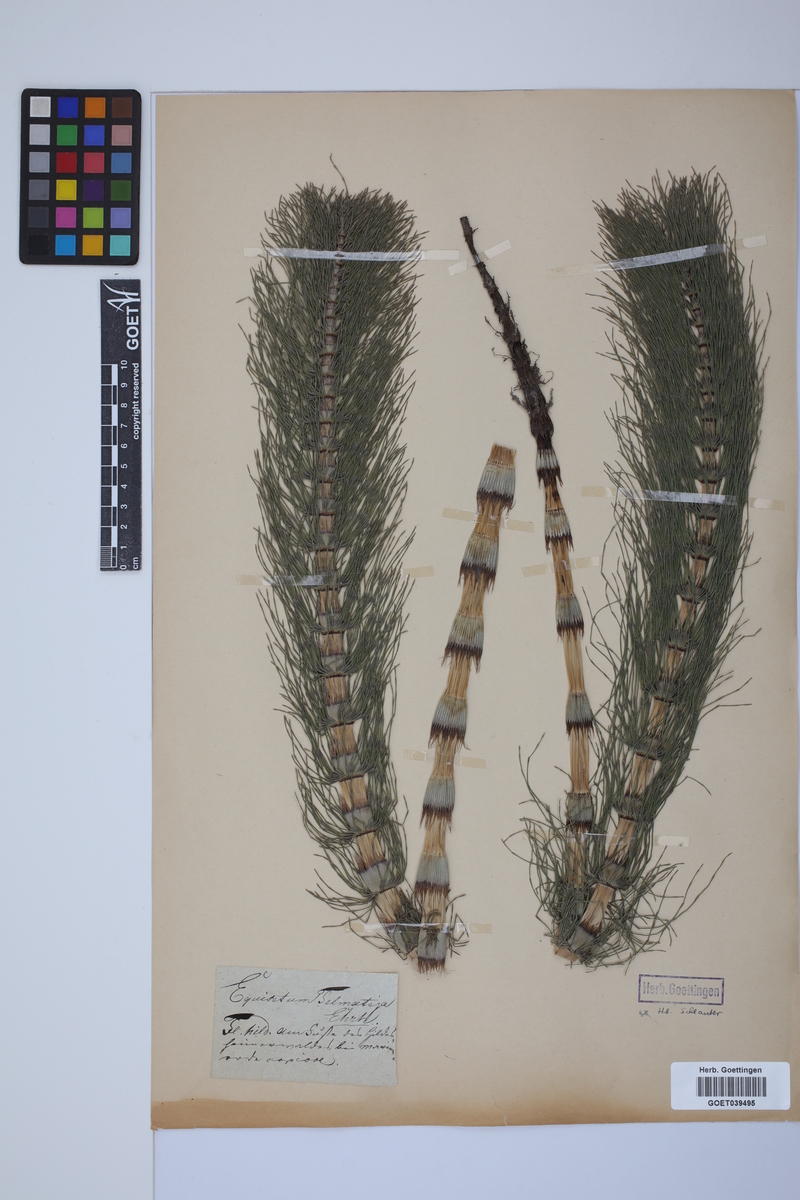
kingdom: Plantae
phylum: Tracheophyta
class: Polypodiopsida
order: Equisetales
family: Equisetaceae
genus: Equisetum
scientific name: Equisetum telmateia
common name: Great horsetail
